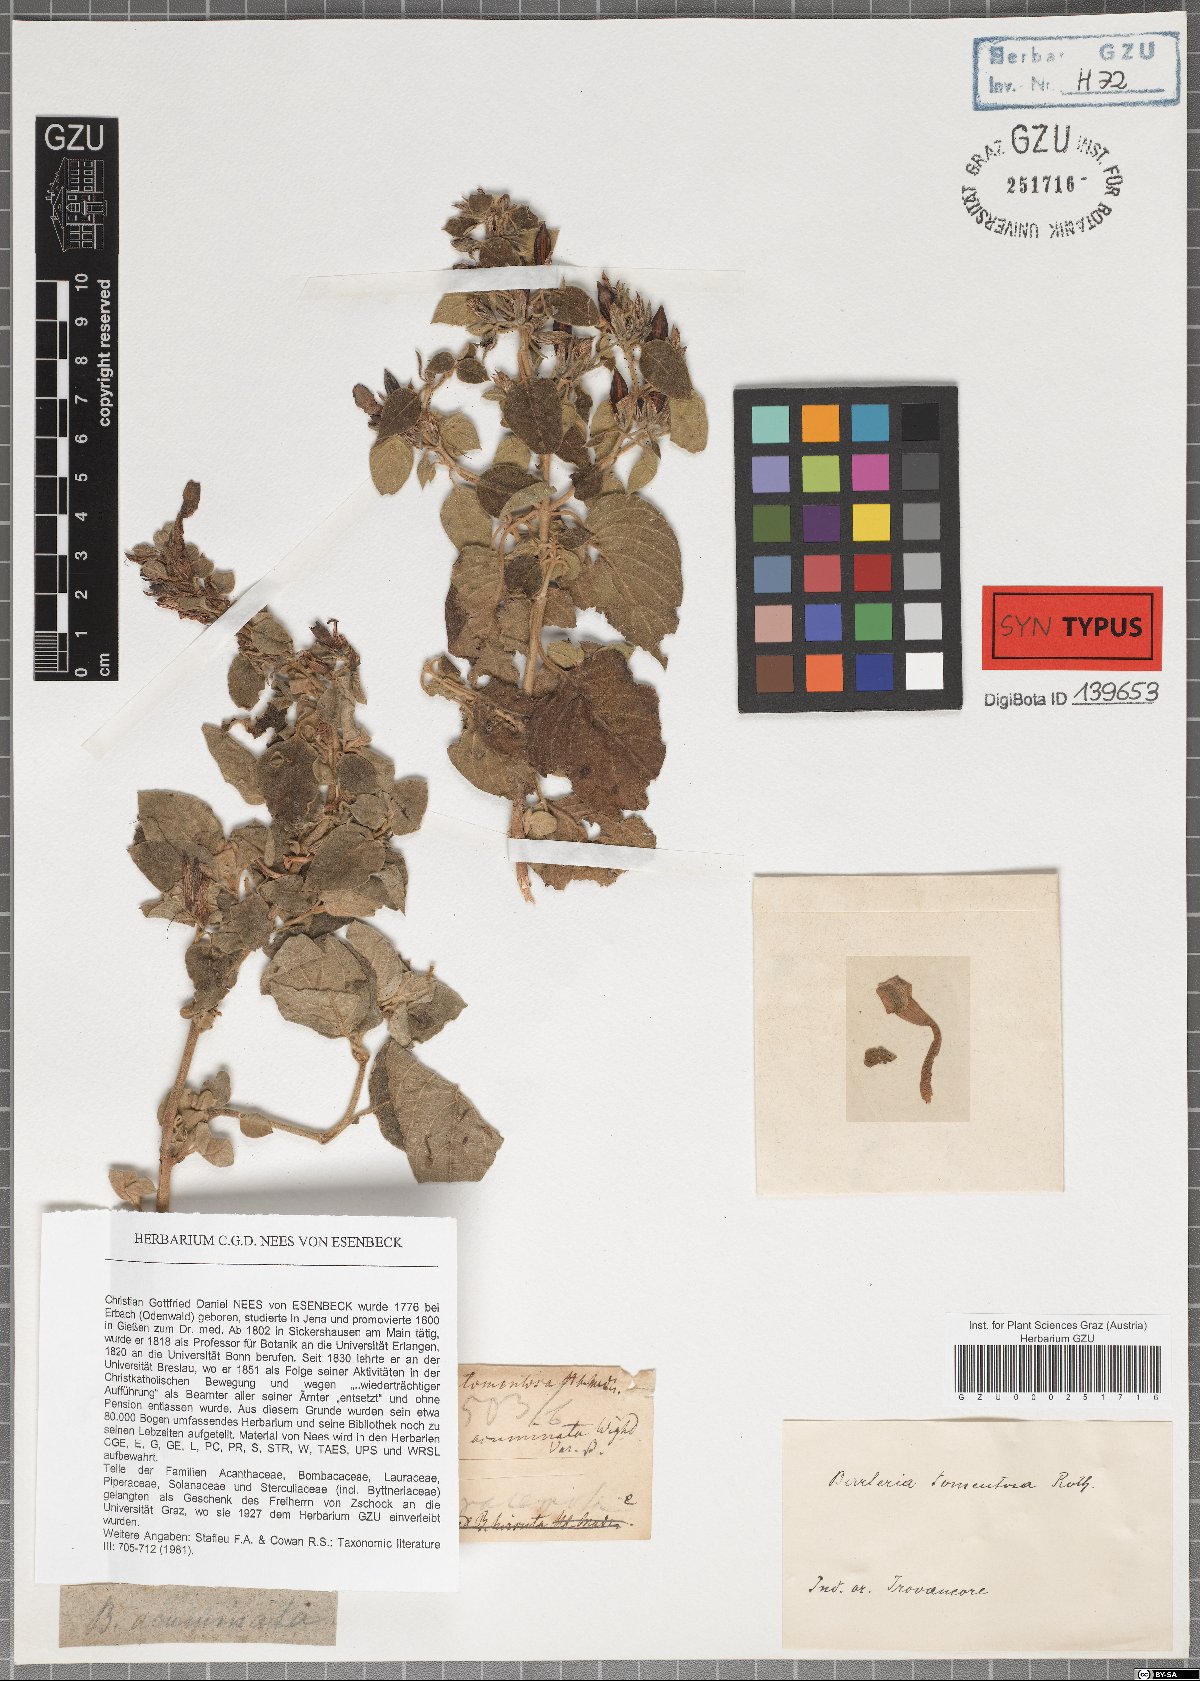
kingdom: Plantae
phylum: Tracheophyta
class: Magnoliopsida
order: Lamiales
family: Acanthaceae
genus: Barleria
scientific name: Barleria acuminata
